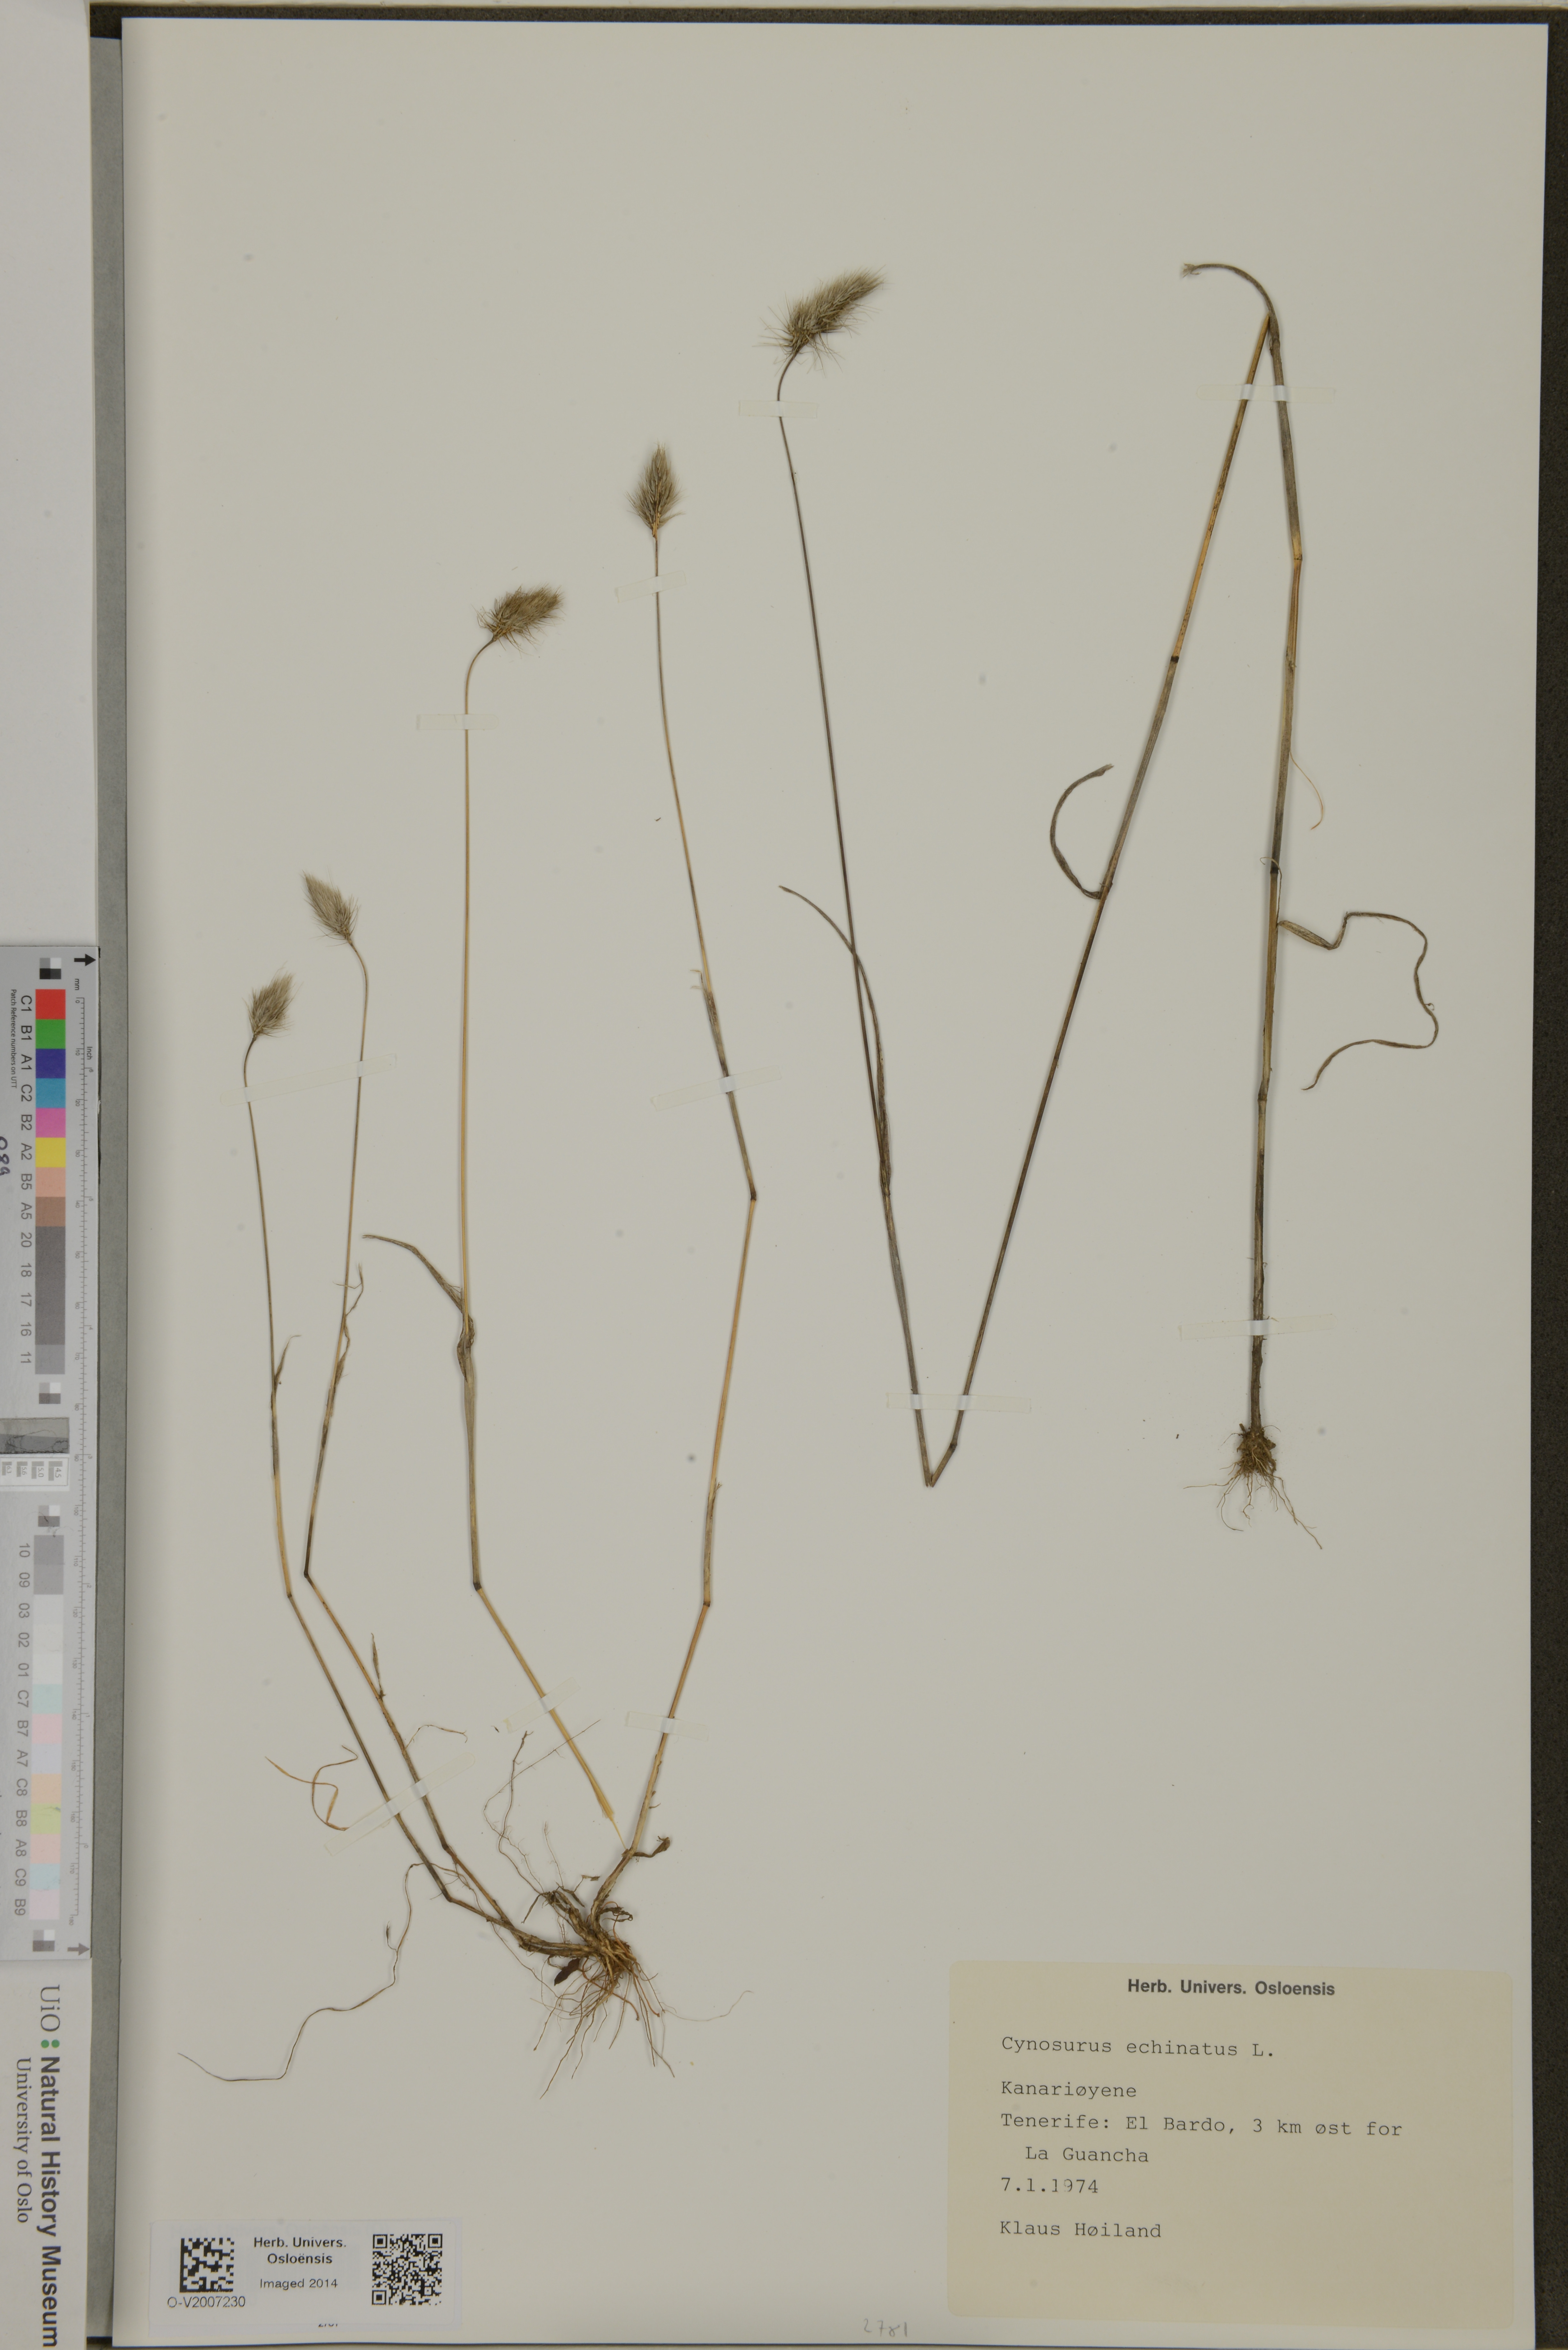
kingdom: Plantae
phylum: Tracheophyta
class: Liliopsida
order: Poales
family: Poaceae
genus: Cynosurus
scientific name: Cynosurus echinatus
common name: Rough dog's-tail
